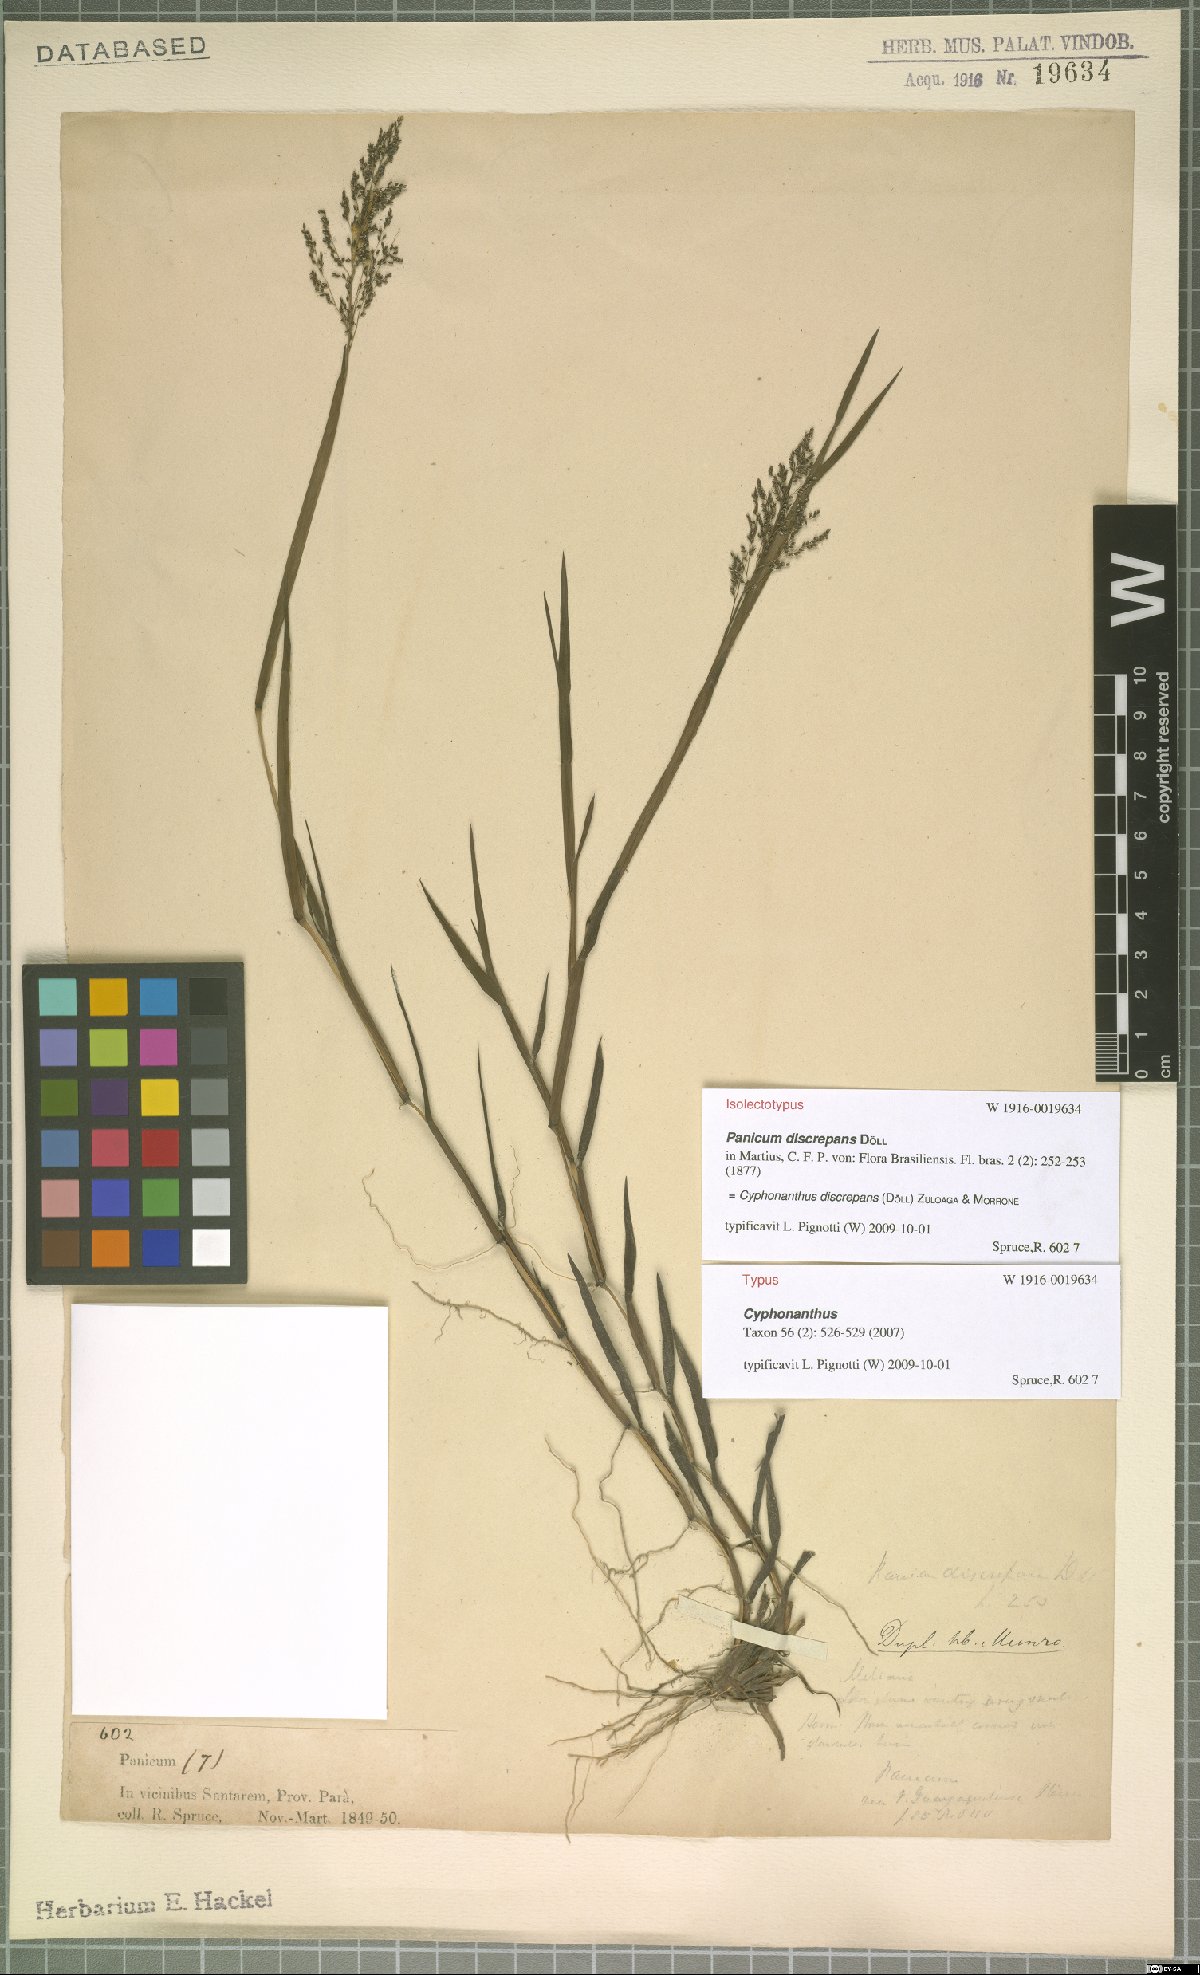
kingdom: Plantae
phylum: Tracheophyta
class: Liliopsida
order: Poales
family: Poaceae
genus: Cyphonanthus
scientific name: Cyphonanthus discrepans
